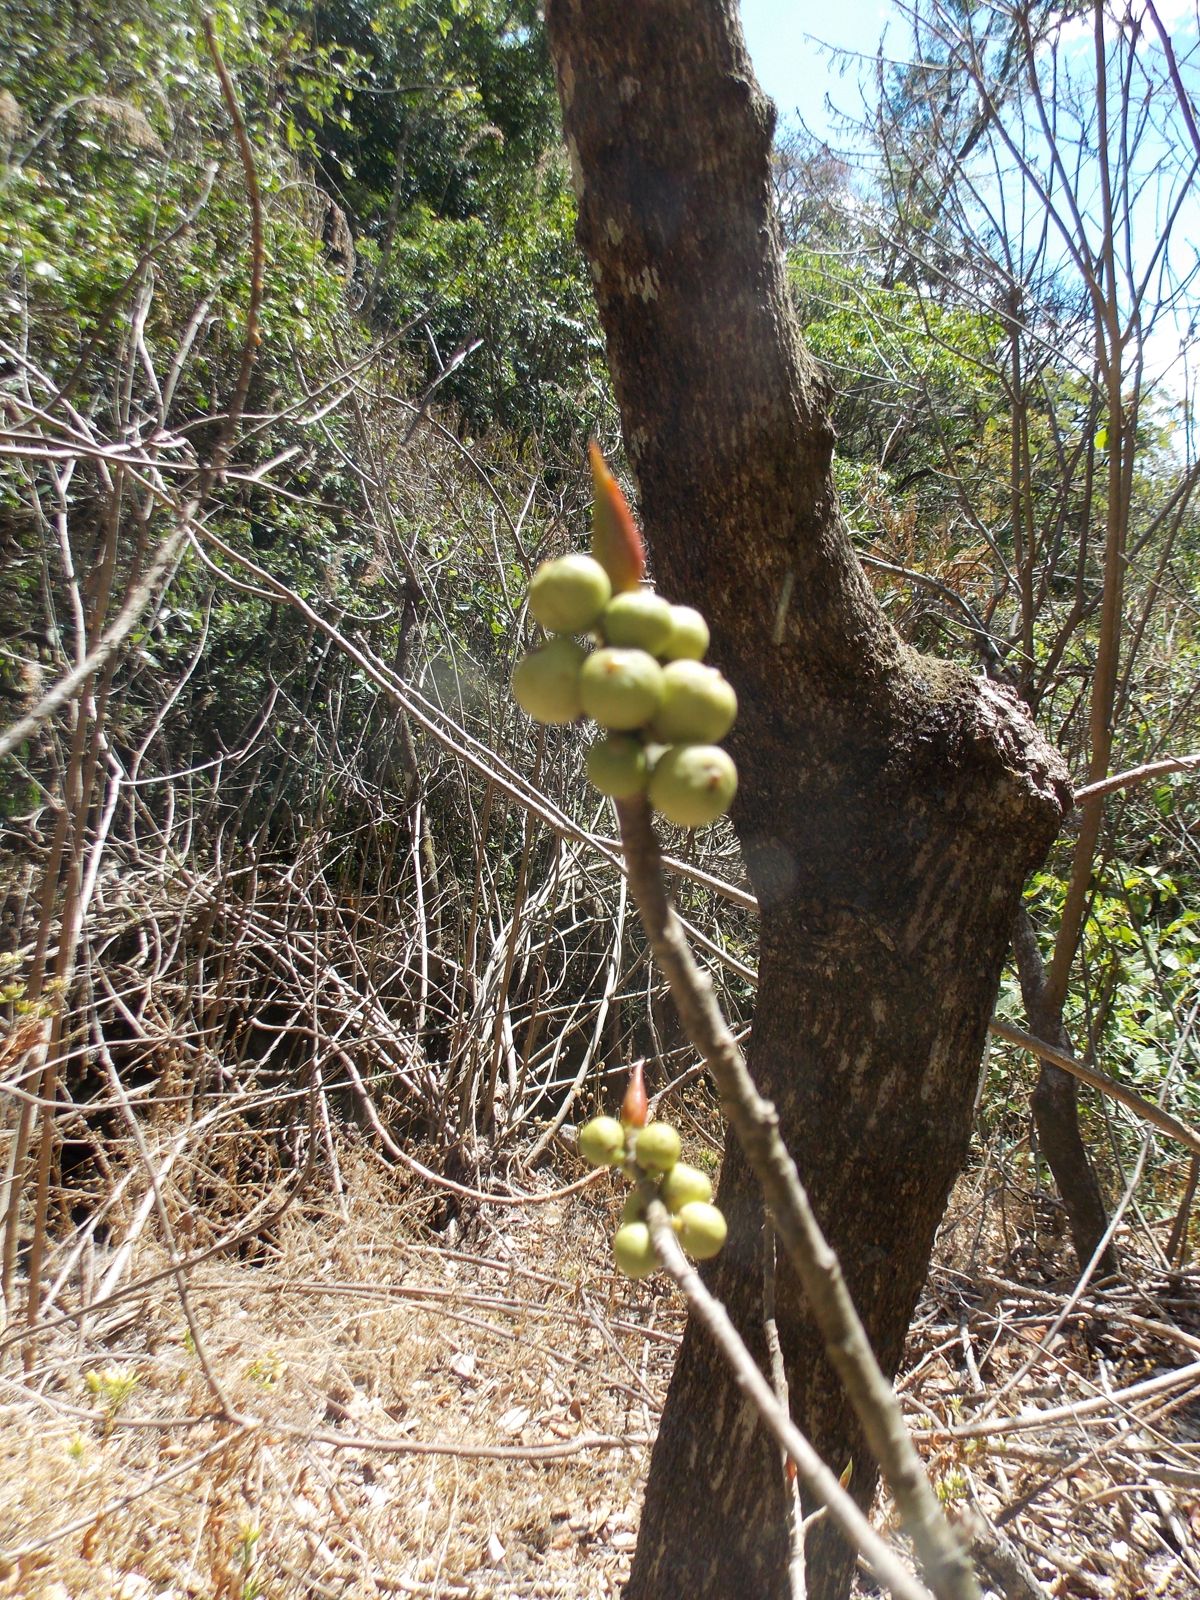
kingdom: Plantae
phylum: Tracheophyta
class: Magnoliopsida
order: Rosales
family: Moraceae
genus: Ficus
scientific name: Ficus costaricana
